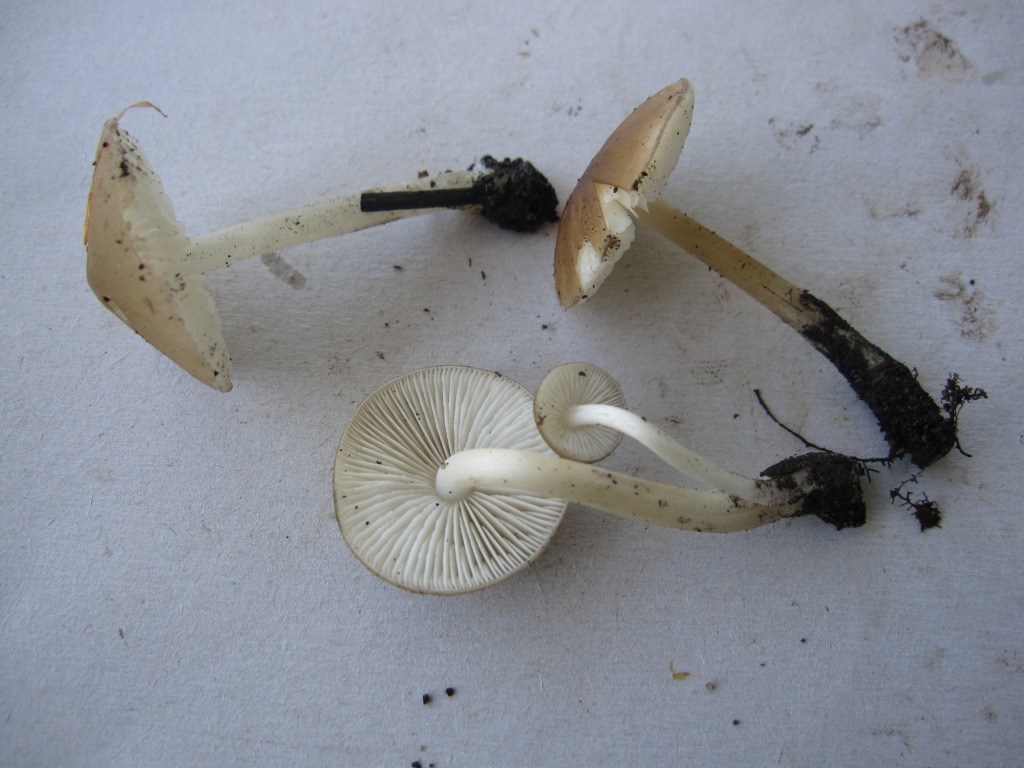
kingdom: Fungi
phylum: Basidiomycota
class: Agaricomycetes
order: Agaricales
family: Porotheleaceae
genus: Hydropodia
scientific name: Hydropodia subalpina
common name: vår-fnugfod
